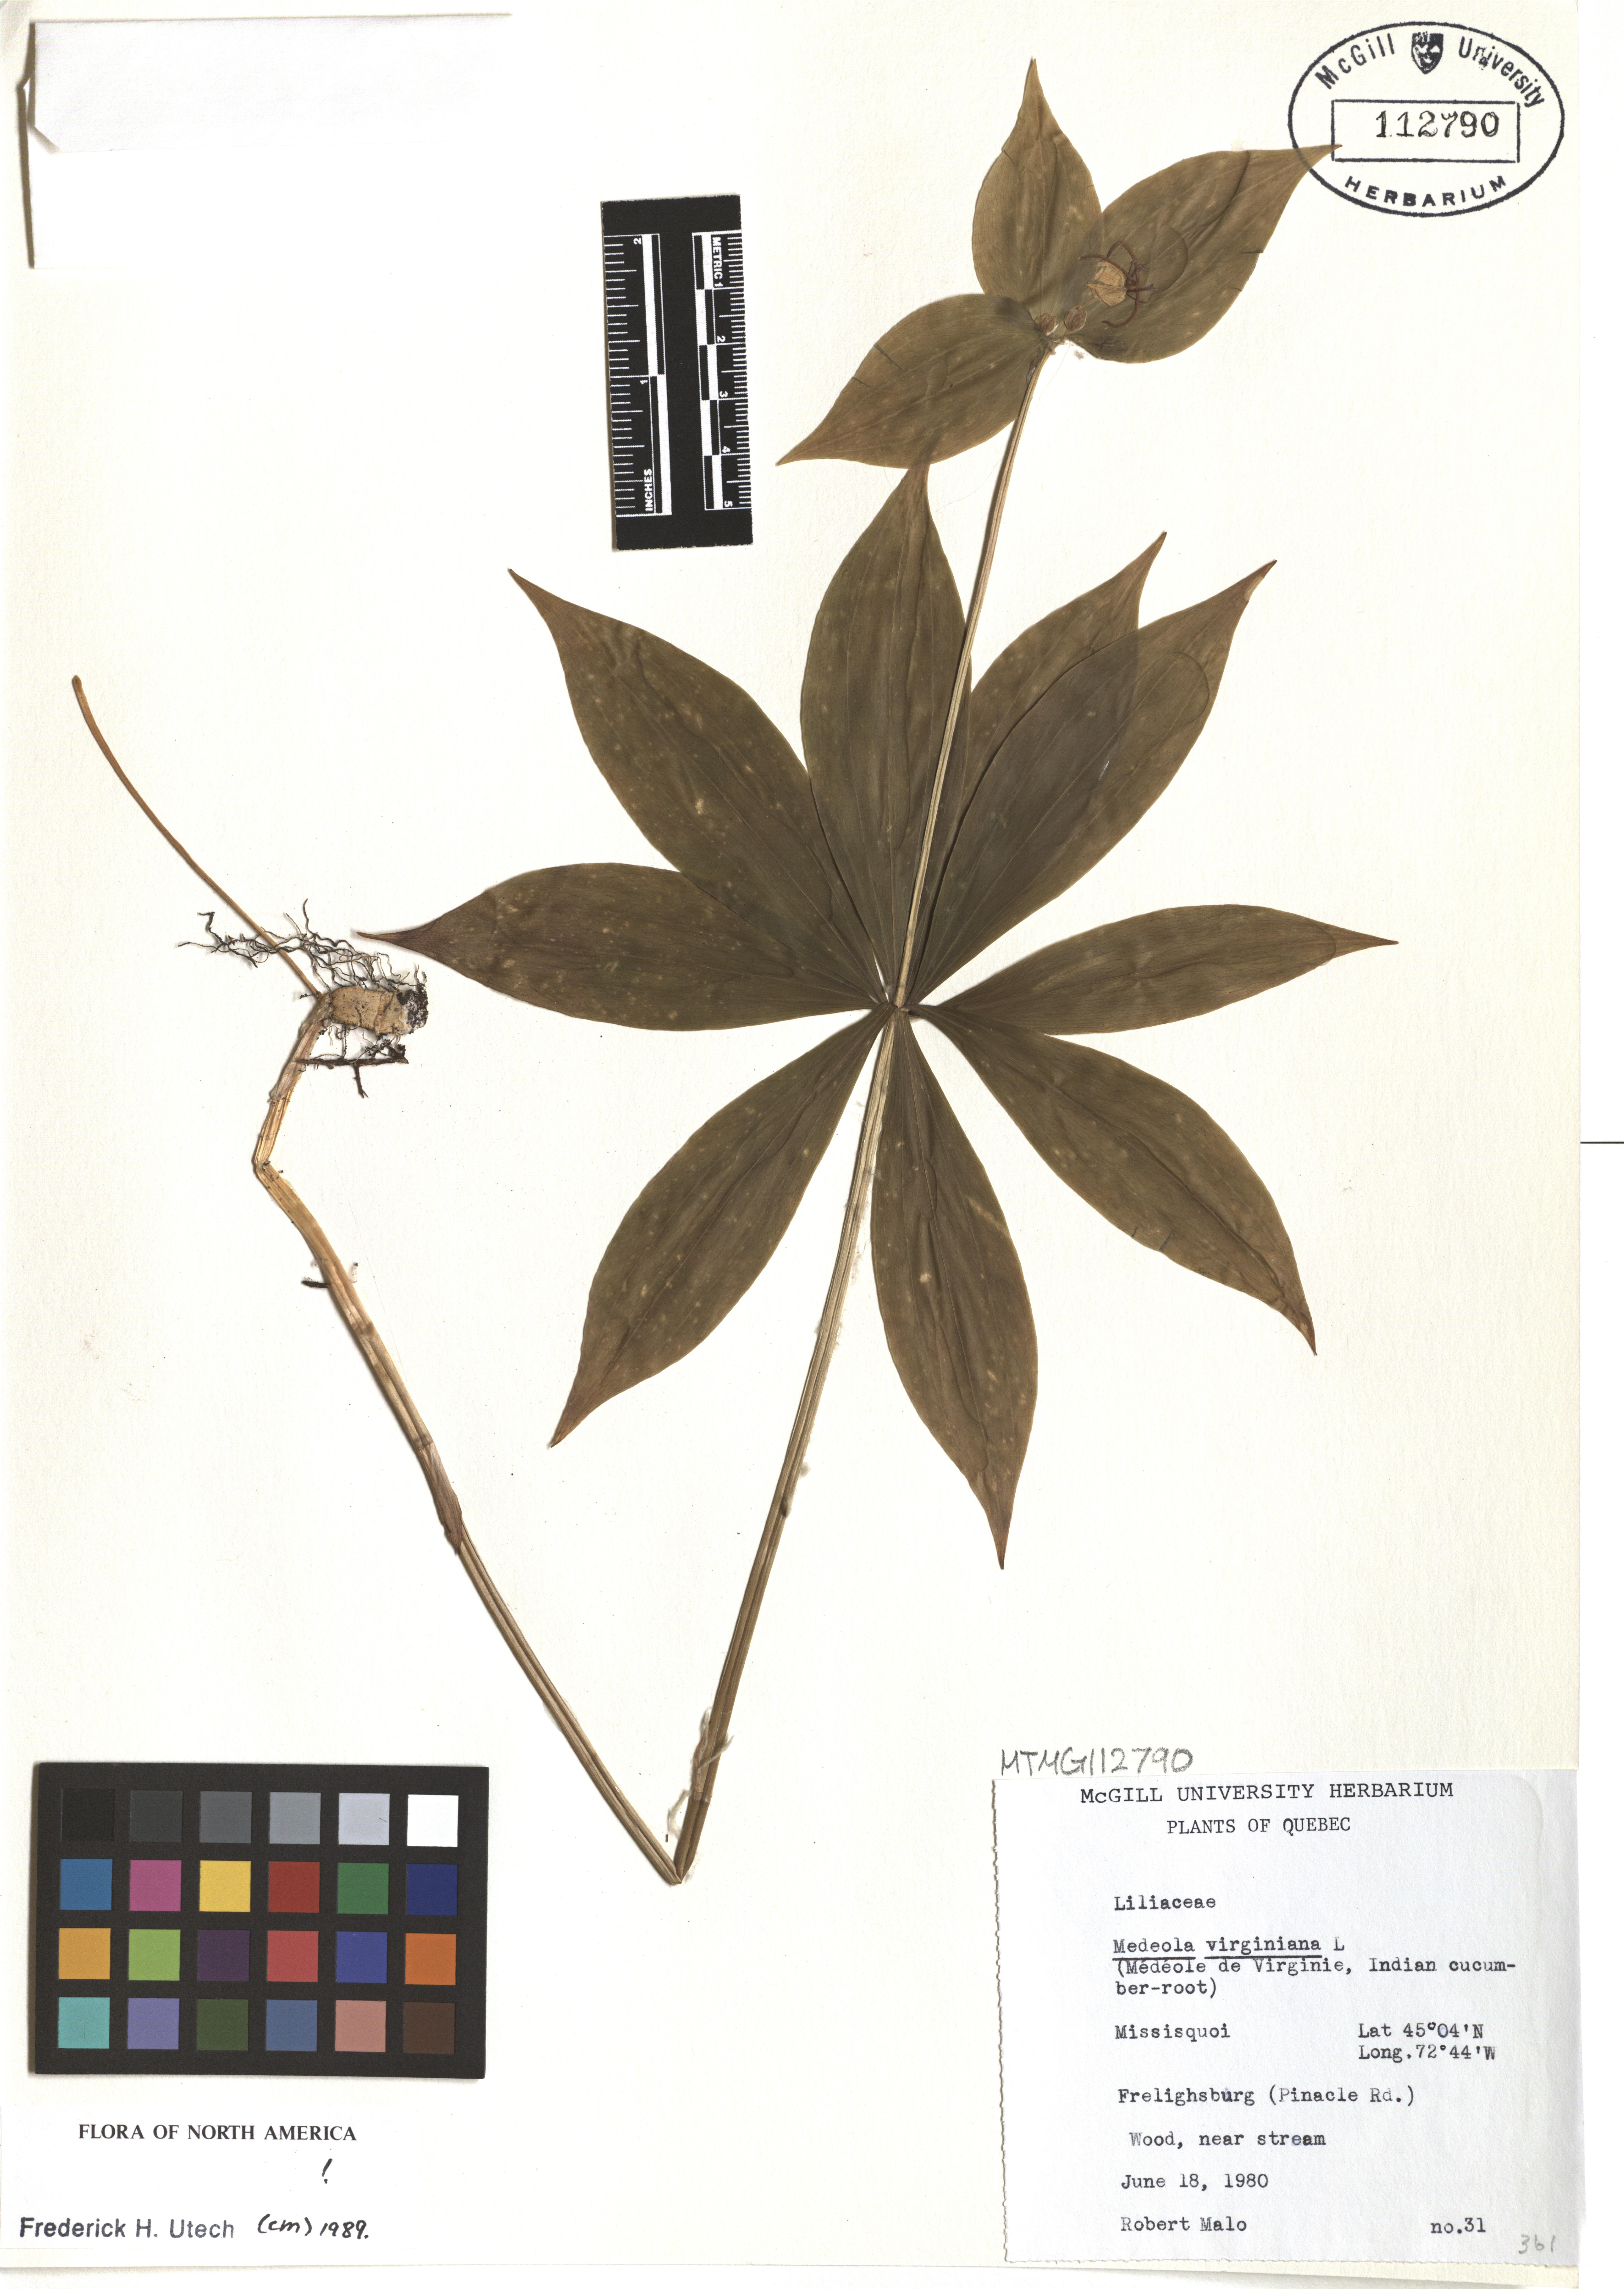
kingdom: Plantae
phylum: Tracheophyta
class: Liliopsida
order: Liliales
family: Liliaceae
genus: Medeola
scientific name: Medeola virginiana
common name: Indian cucumber-root
